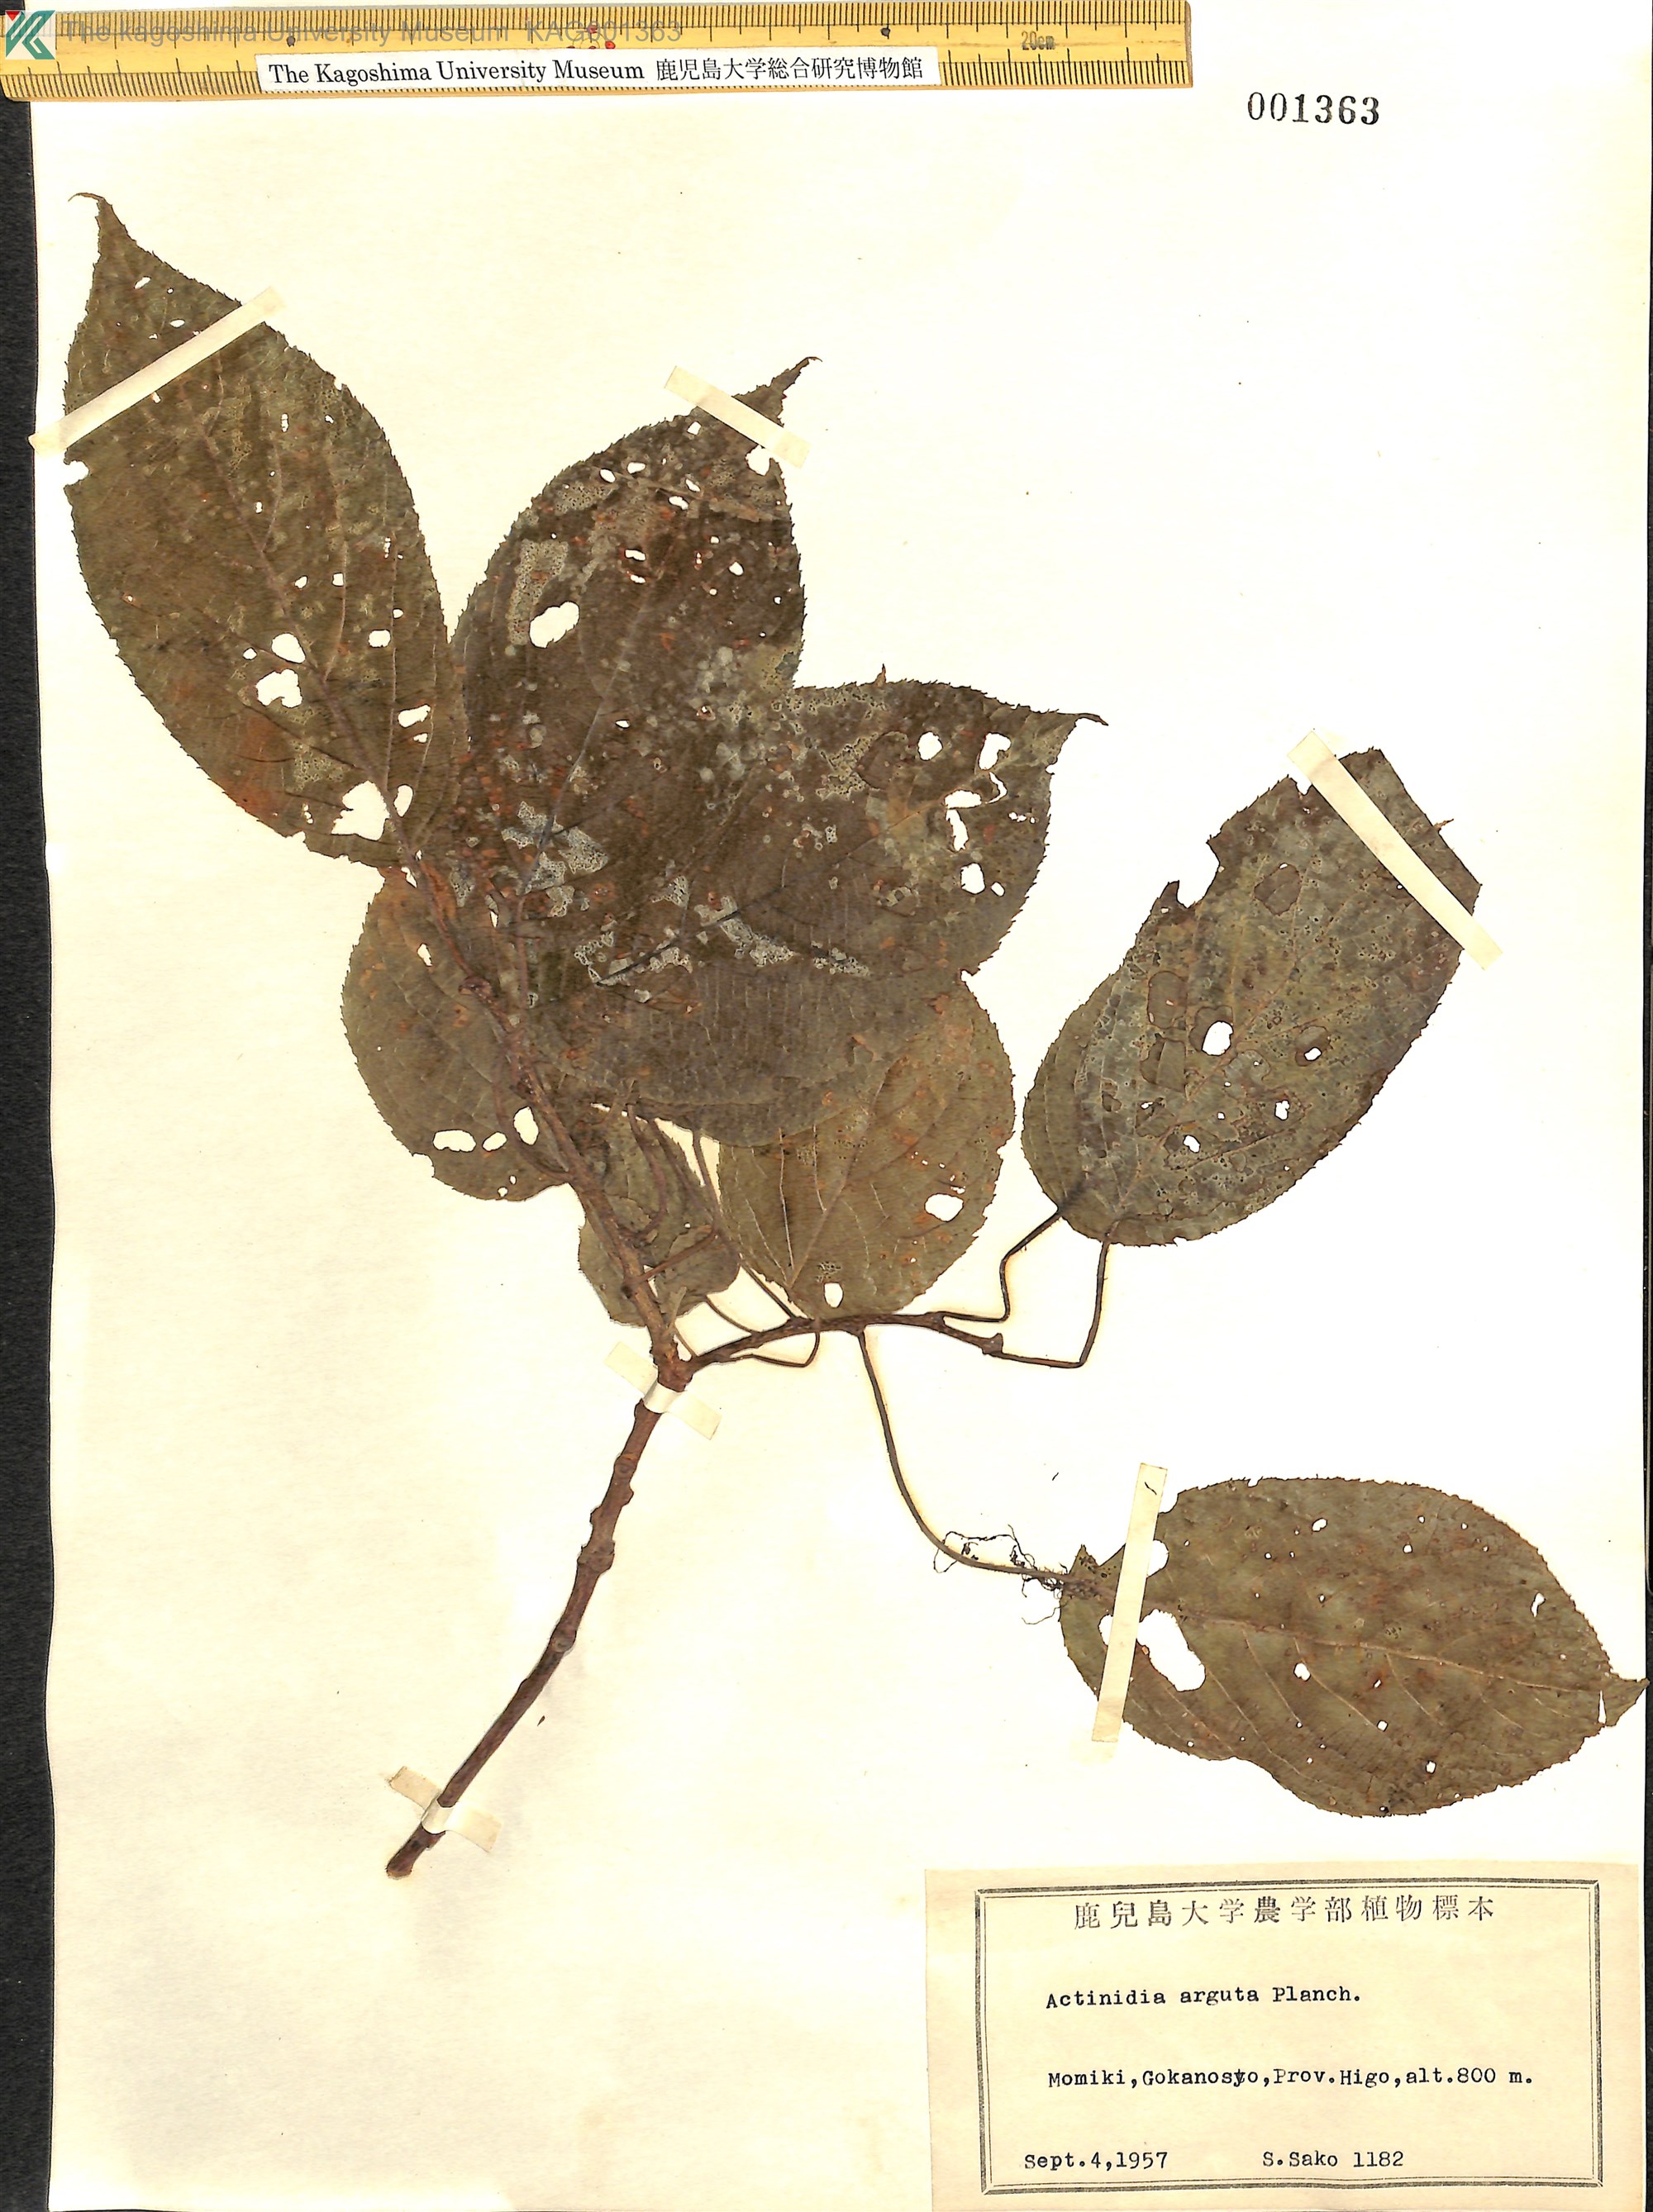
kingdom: Plantae
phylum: Tracheophyta
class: Magnoliopsida
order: Ericales
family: Actinidiaceae
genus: Actinidia
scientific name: Actinidia arguta
